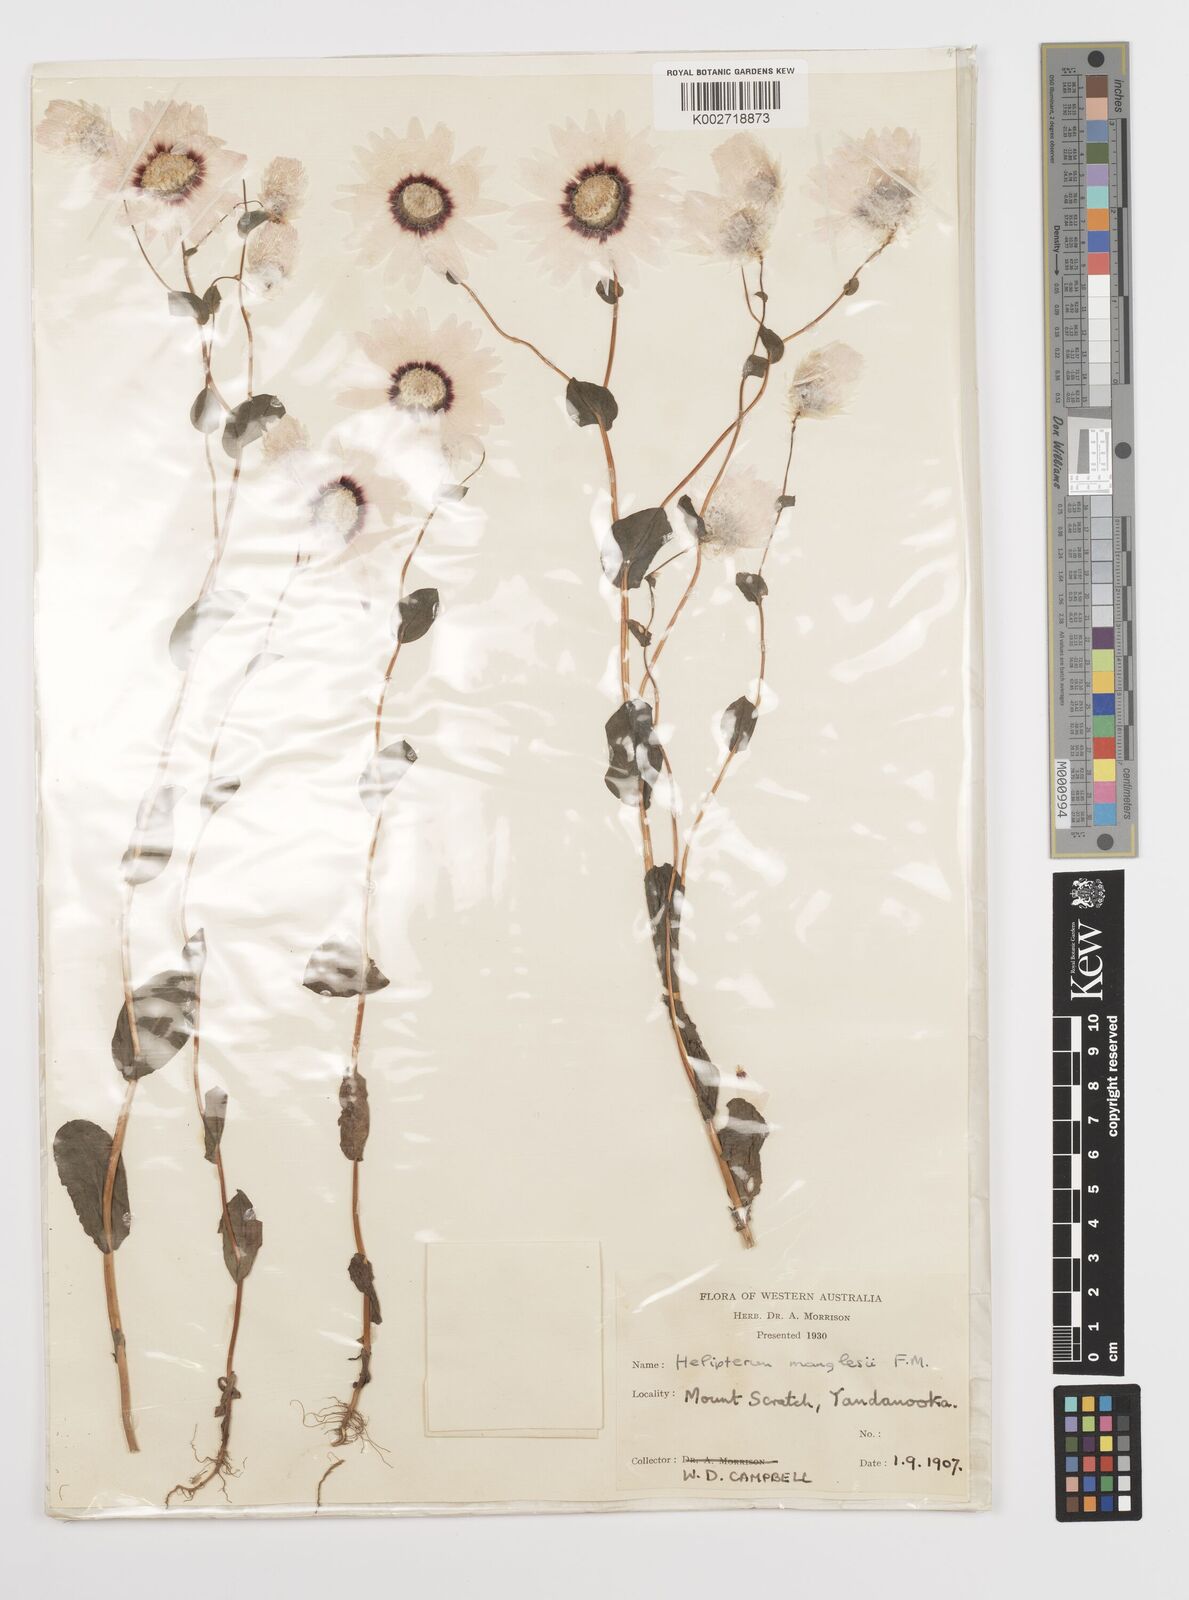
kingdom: Plantae
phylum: Tracheophyta
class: Magnoliopsida
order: Asterales
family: Asteraceae
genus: Rhodanthe
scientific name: Rhodanthe manglesii
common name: Pink sunray
